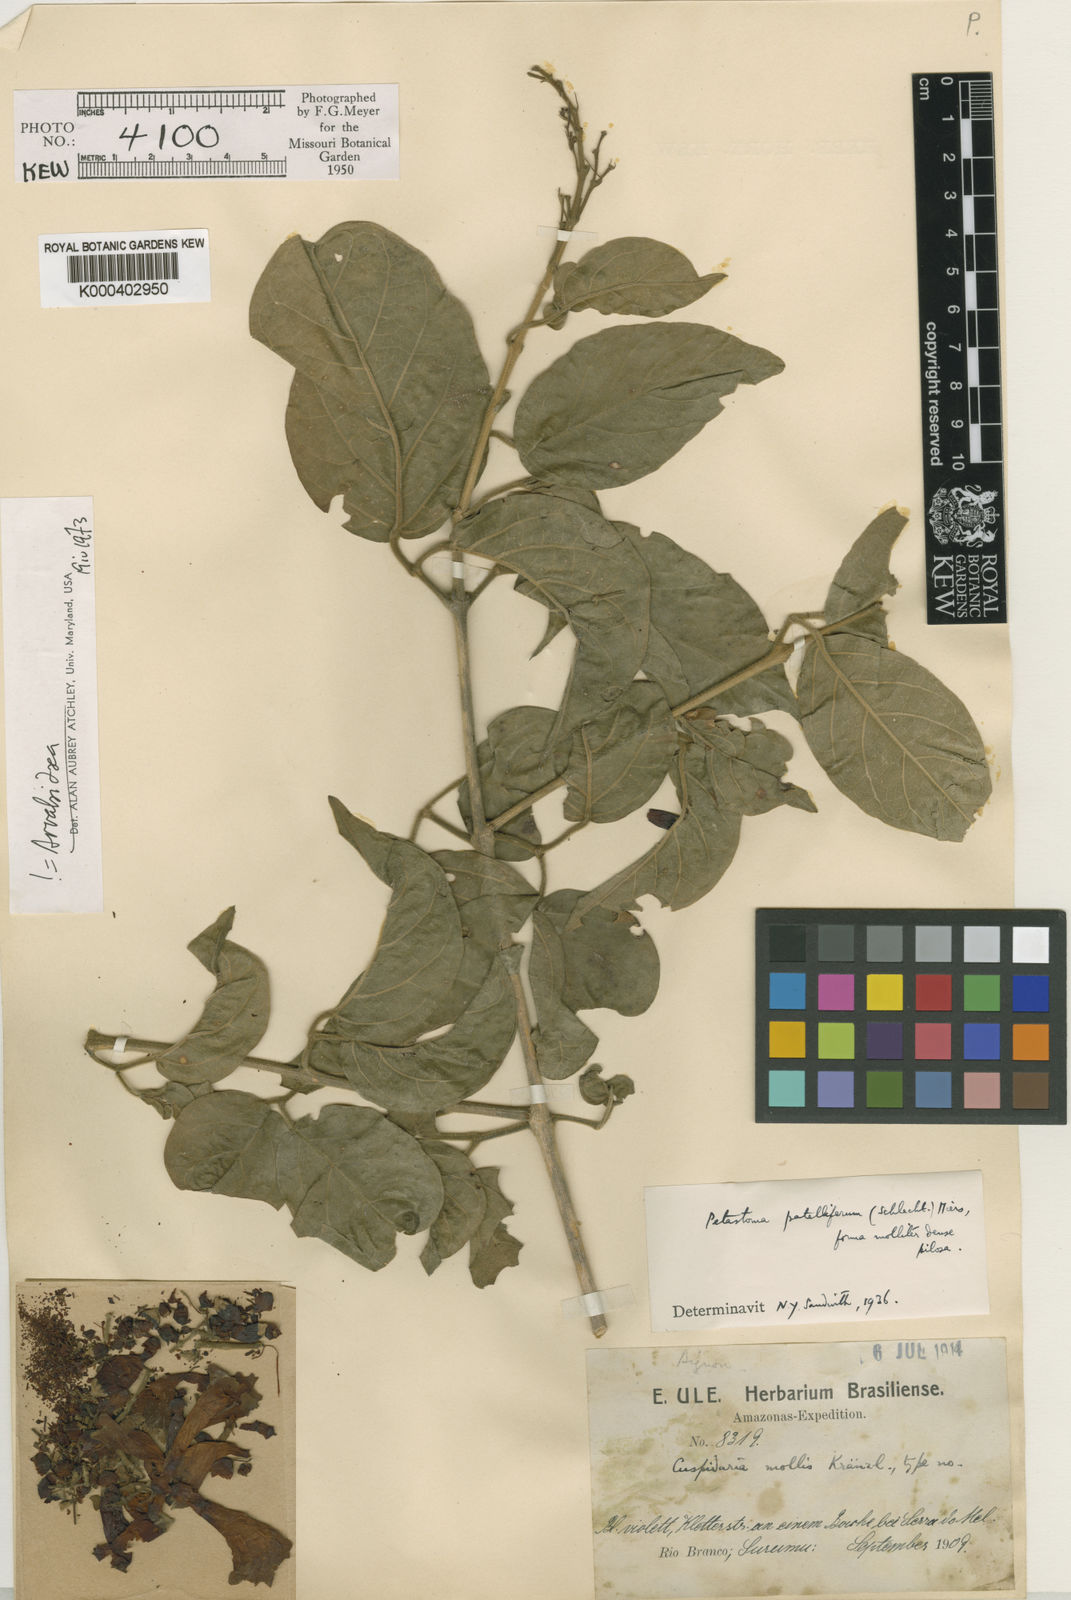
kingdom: Plantae
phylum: Tracheophyta
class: Magnoliopsida
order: Lamiales
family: Bignoniaceae
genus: Fridericia
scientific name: Fridericia patellifera
